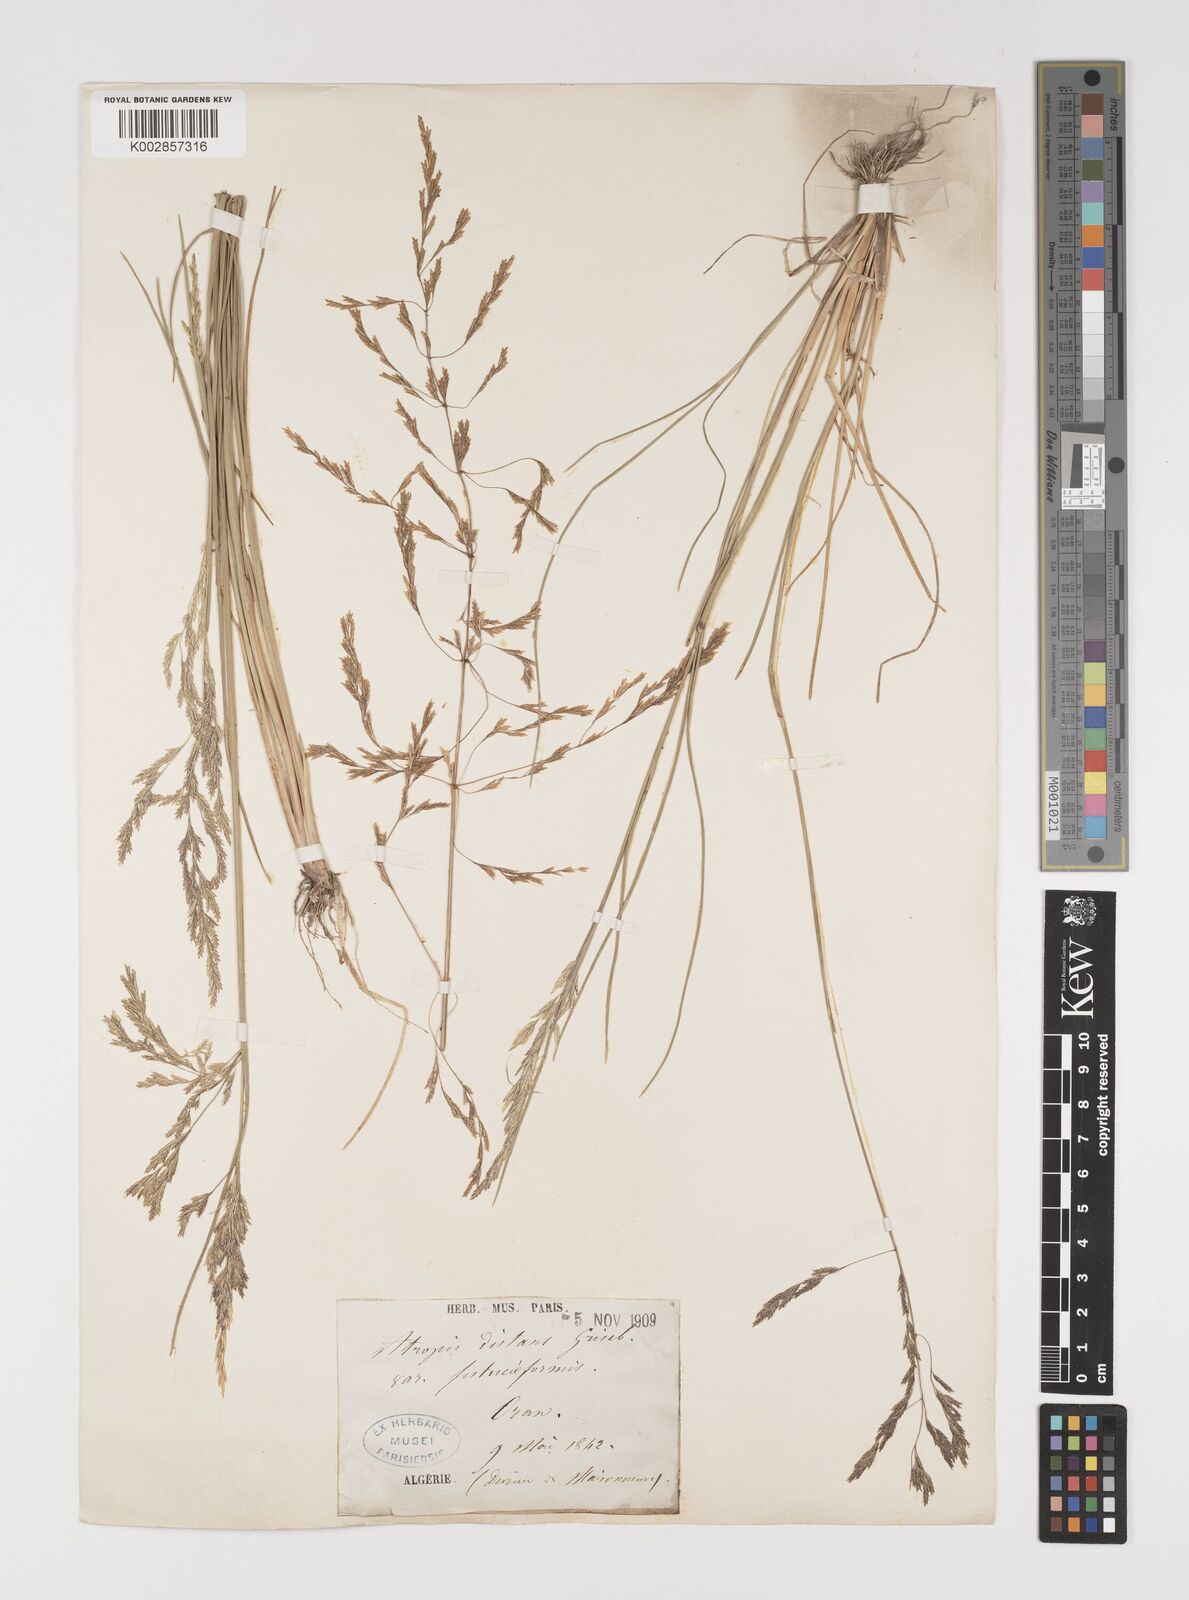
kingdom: Plantae
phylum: Tracheophyta
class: Liliopsida
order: Poales
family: Poaceae
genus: Puccinellia
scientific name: Puccinellia distans
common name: Weeping alkaligrass
